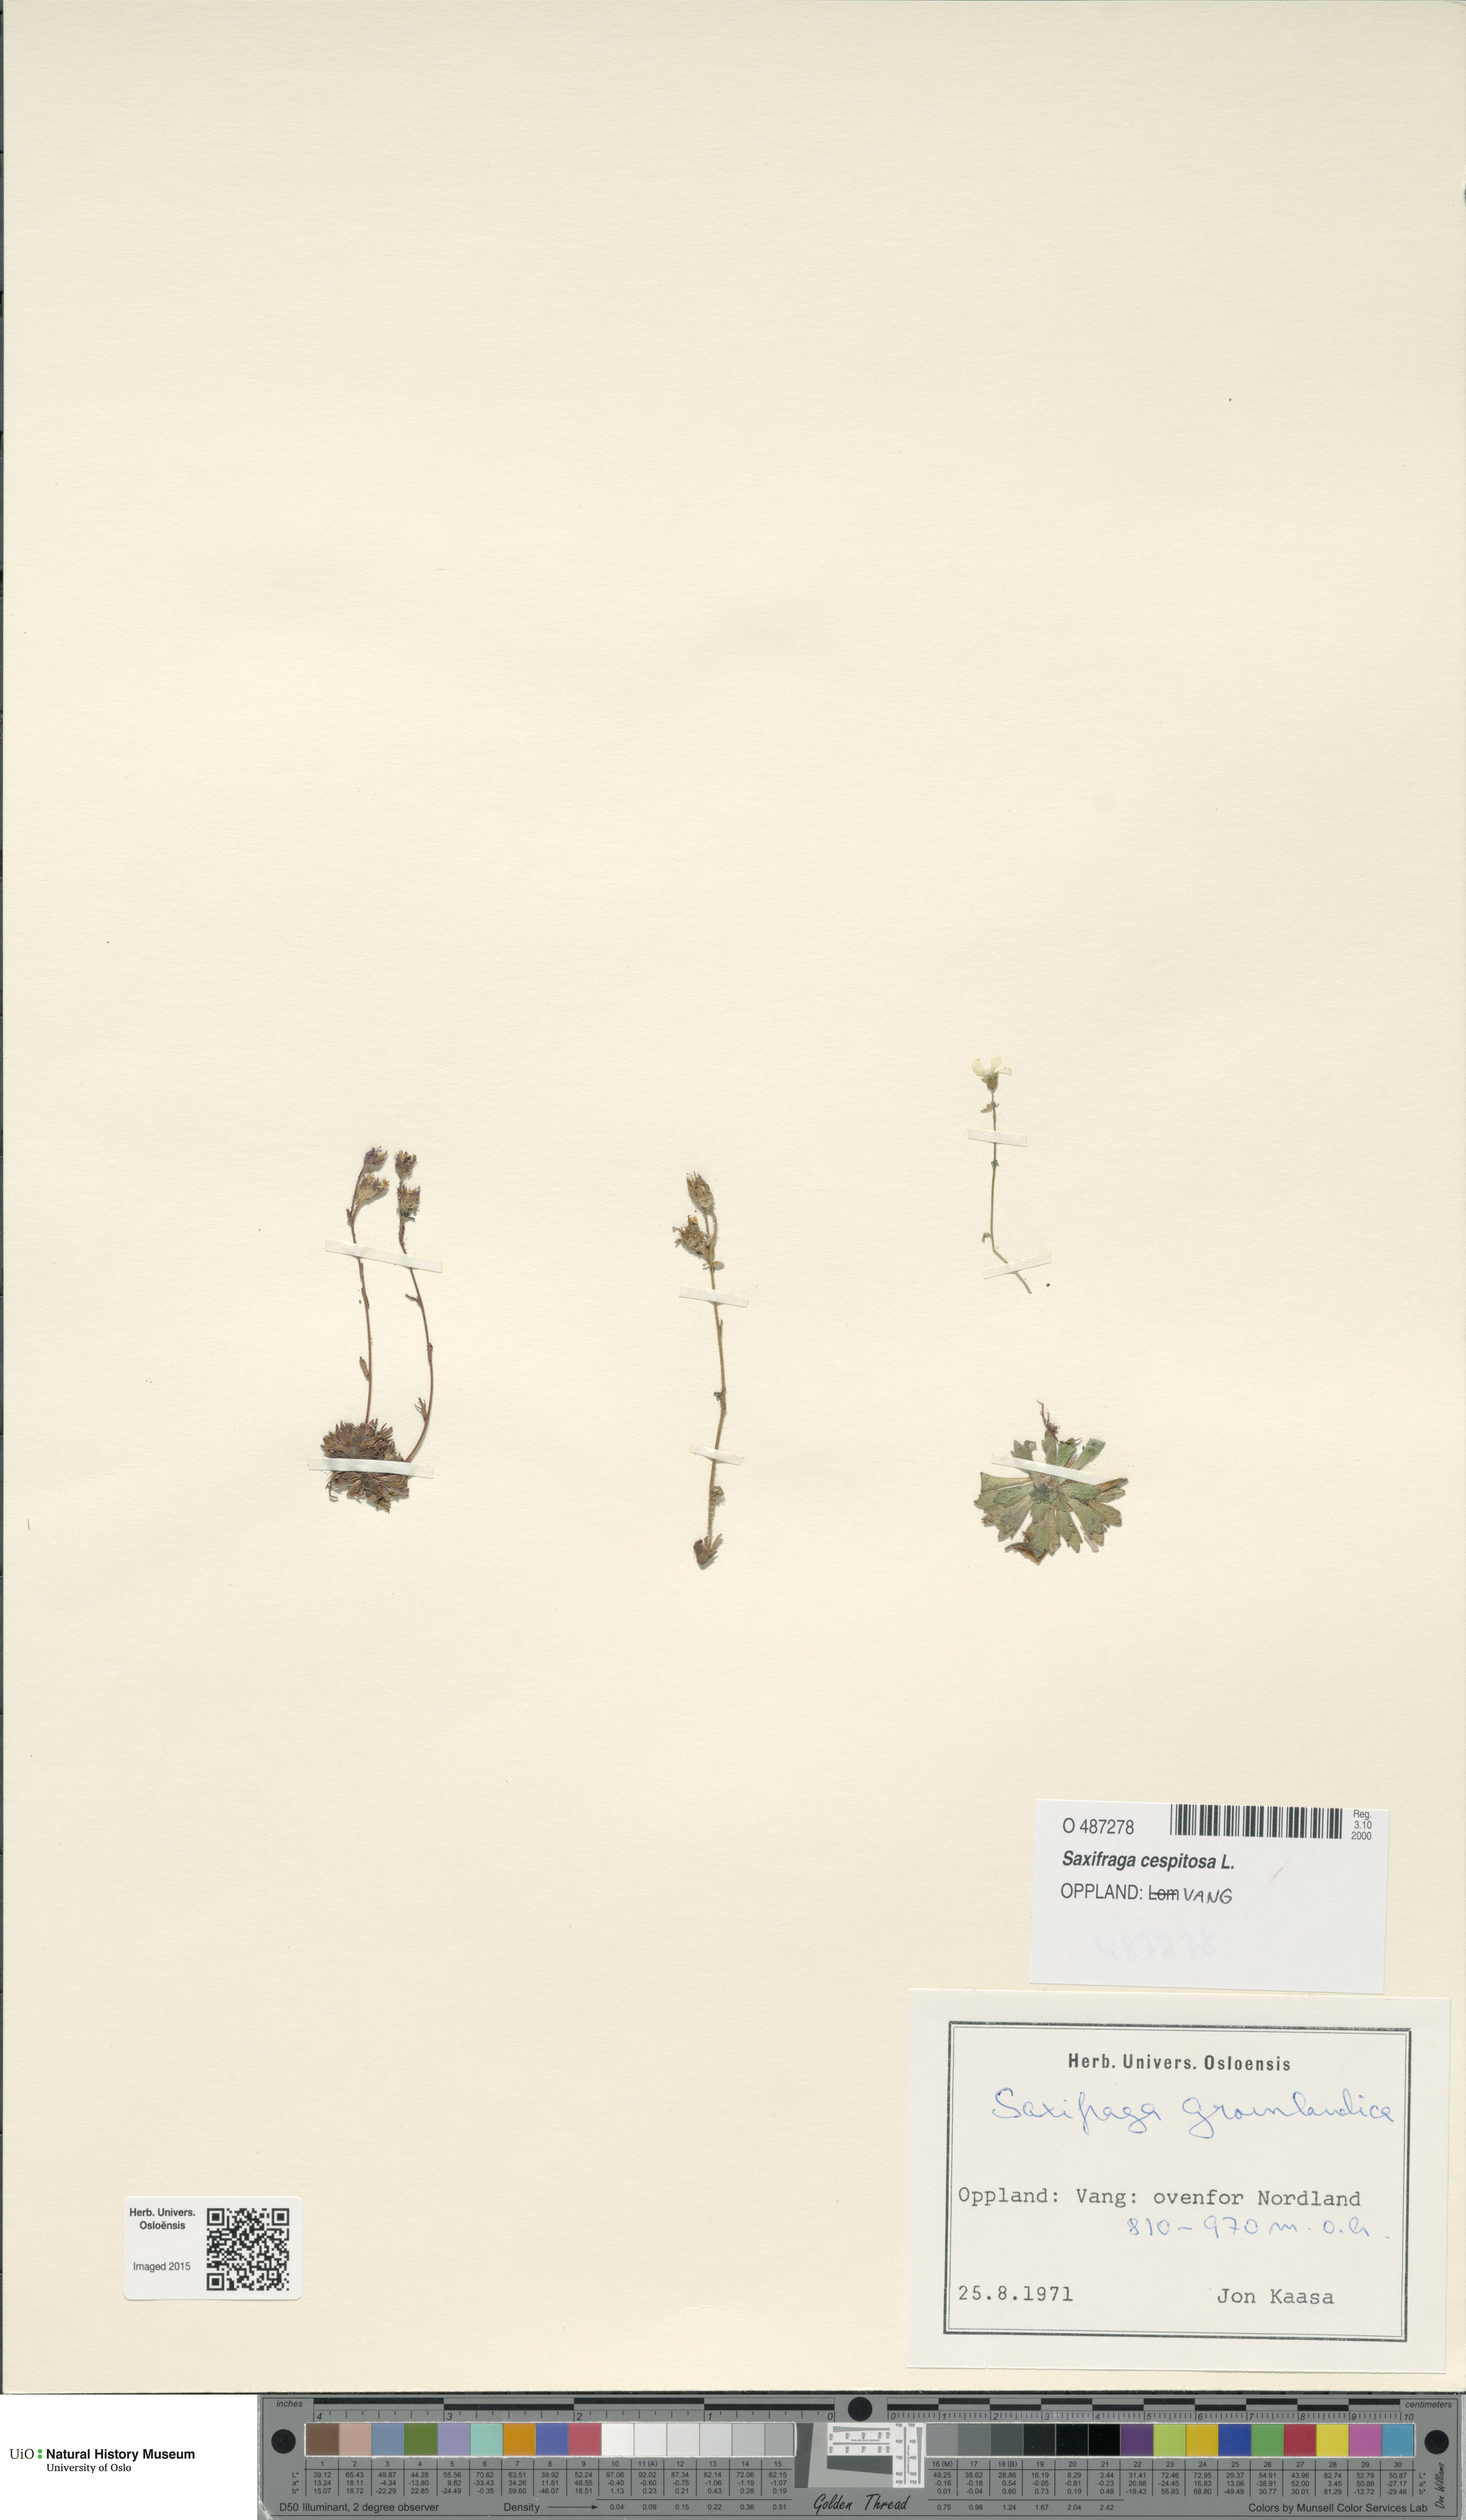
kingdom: Plantae
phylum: Tracheophyta
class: Magnoliopsida
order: Saxifragales
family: Saxifragaceae
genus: Saxifraga
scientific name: Saxifraga cespitosa
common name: Tufted saxifrage
